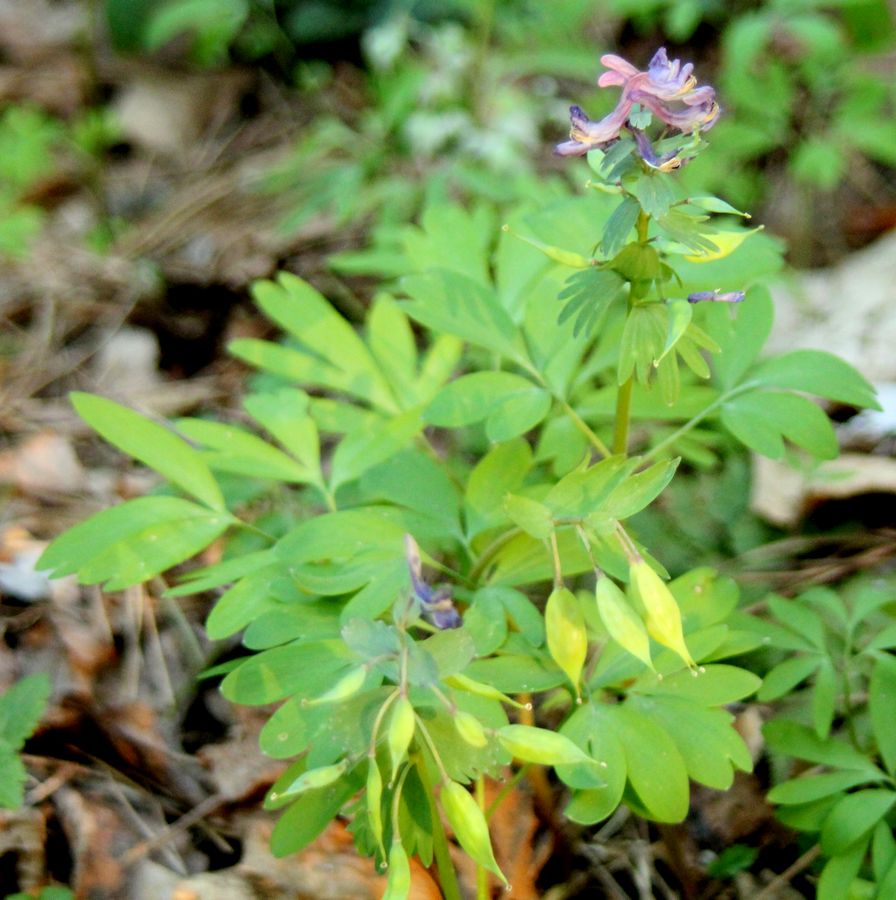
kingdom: Plantae
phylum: Tracheophyta
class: Magnoliopsida
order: Ranunculales
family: Papaveraceae
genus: Corydalis
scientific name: Corydalis solida
